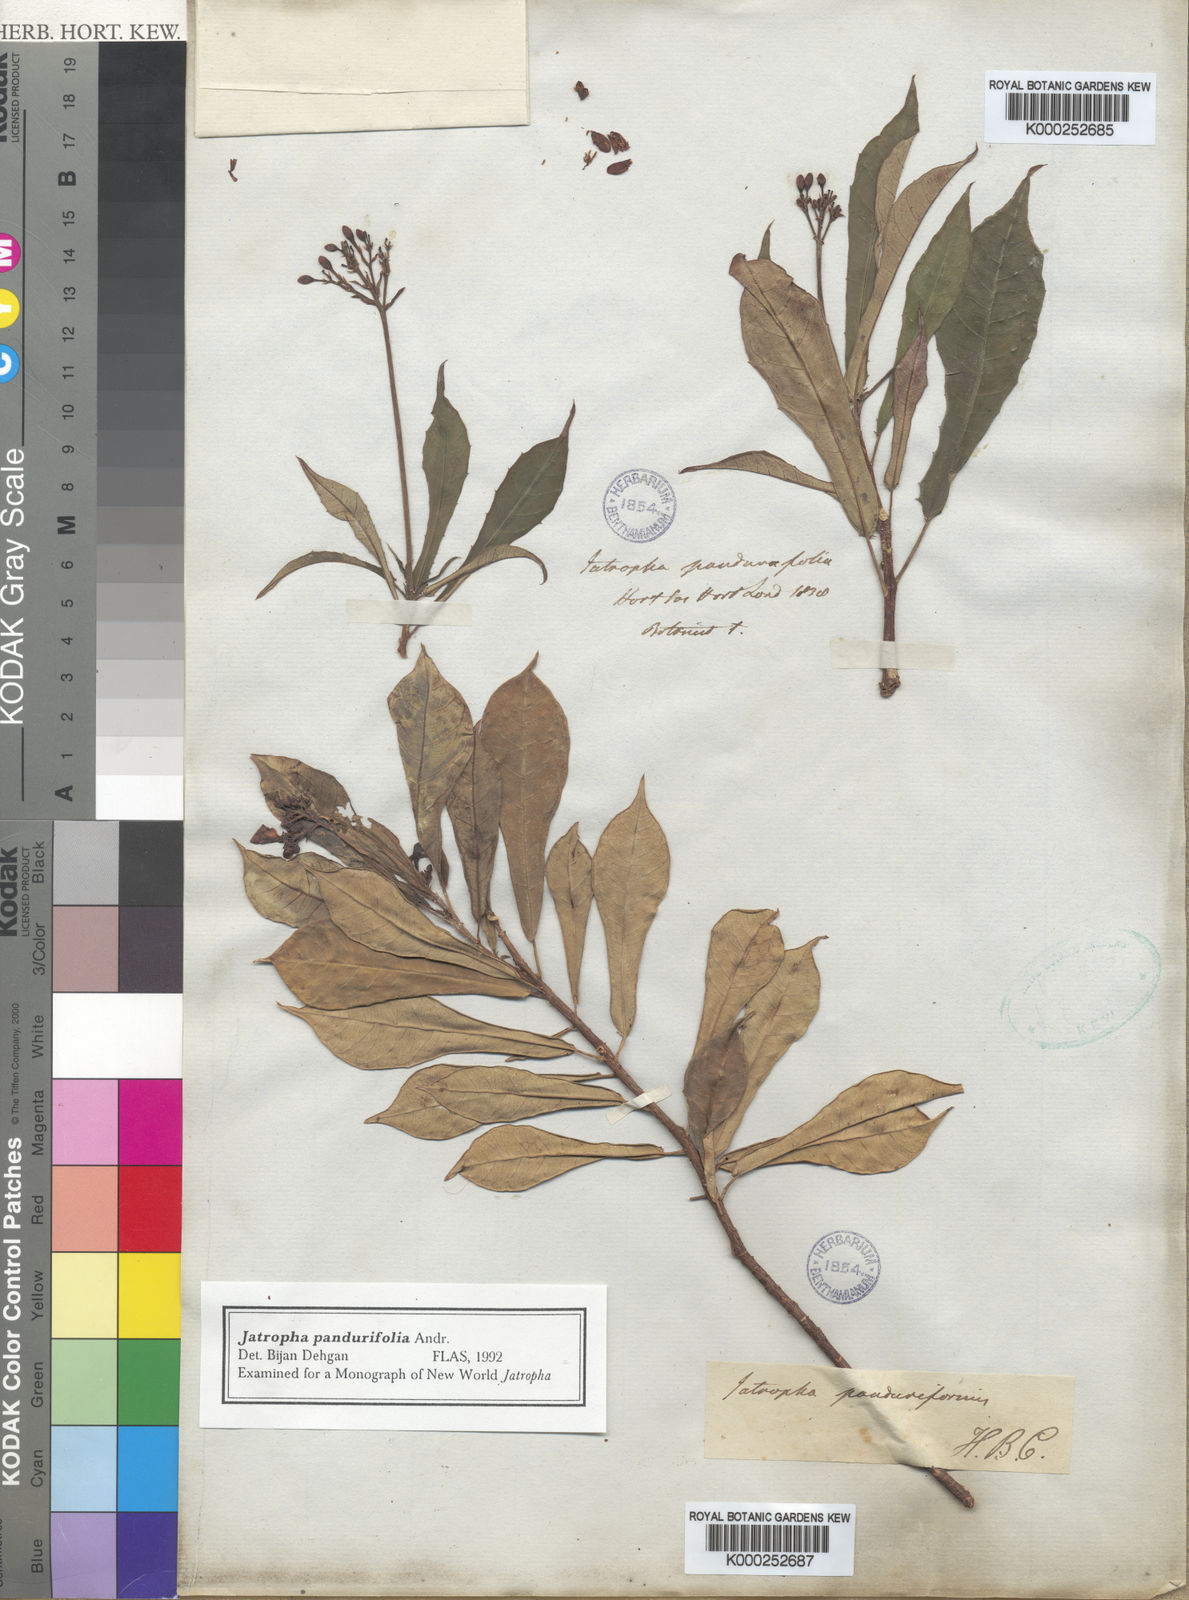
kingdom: Plantae
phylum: Tracheophyta
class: Magnoliopsida
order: Malpighiales
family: Euphorbiaceae
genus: Jatropha
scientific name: Jatropha integerrima
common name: Peregrina
